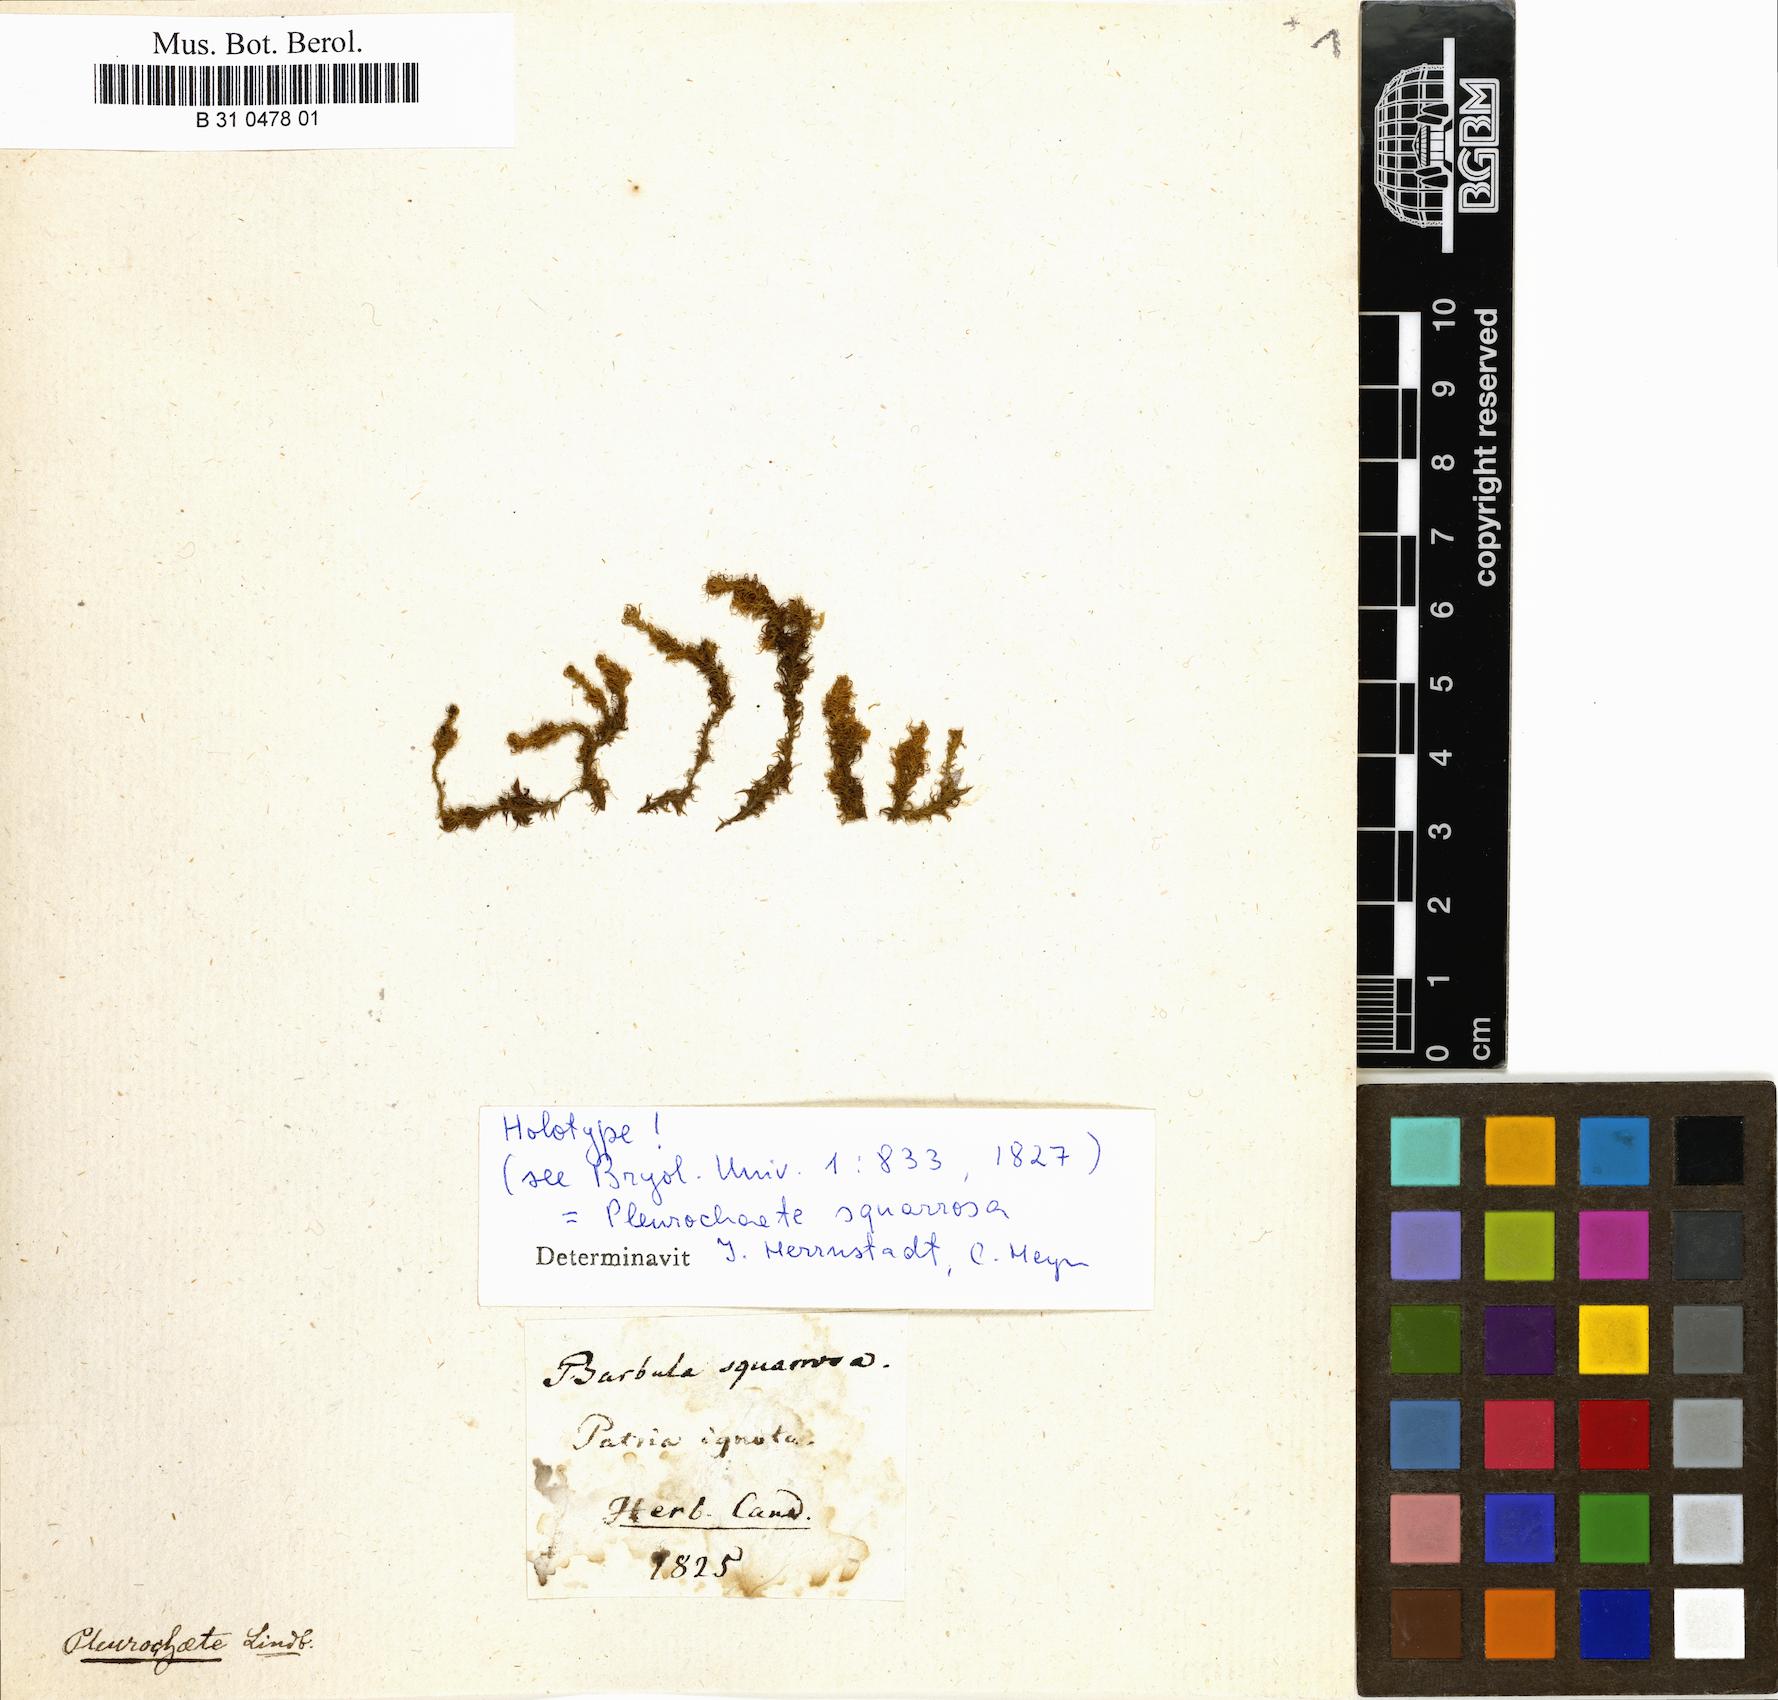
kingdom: Plantae
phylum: Bryophyta
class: Bryopsida
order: Pottiales
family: Pottiaceae
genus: Pleurochaete
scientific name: Pleurochaete squarrosa
